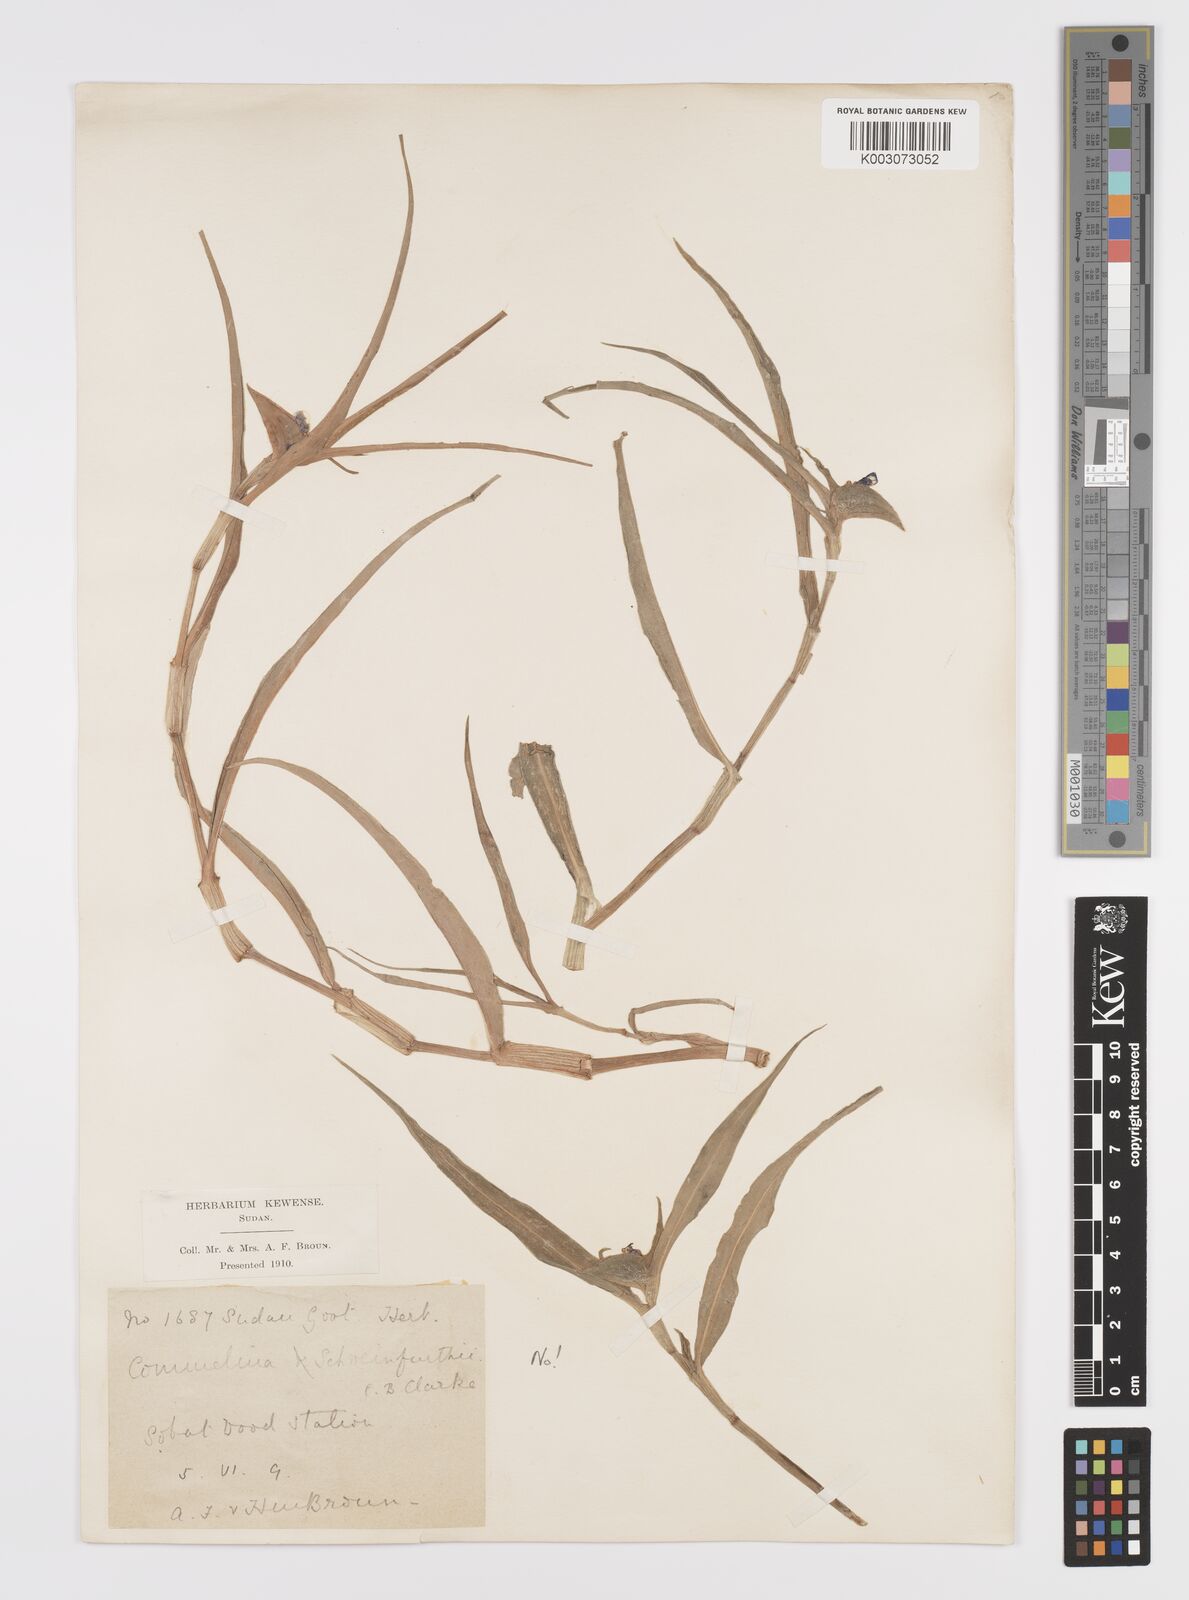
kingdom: Plantae
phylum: Tracheophyta
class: Liliopsida
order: Commelinales
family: Commelinaceae
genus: Commelina
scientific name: Commelina erecta
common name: Blousel blommetjie
